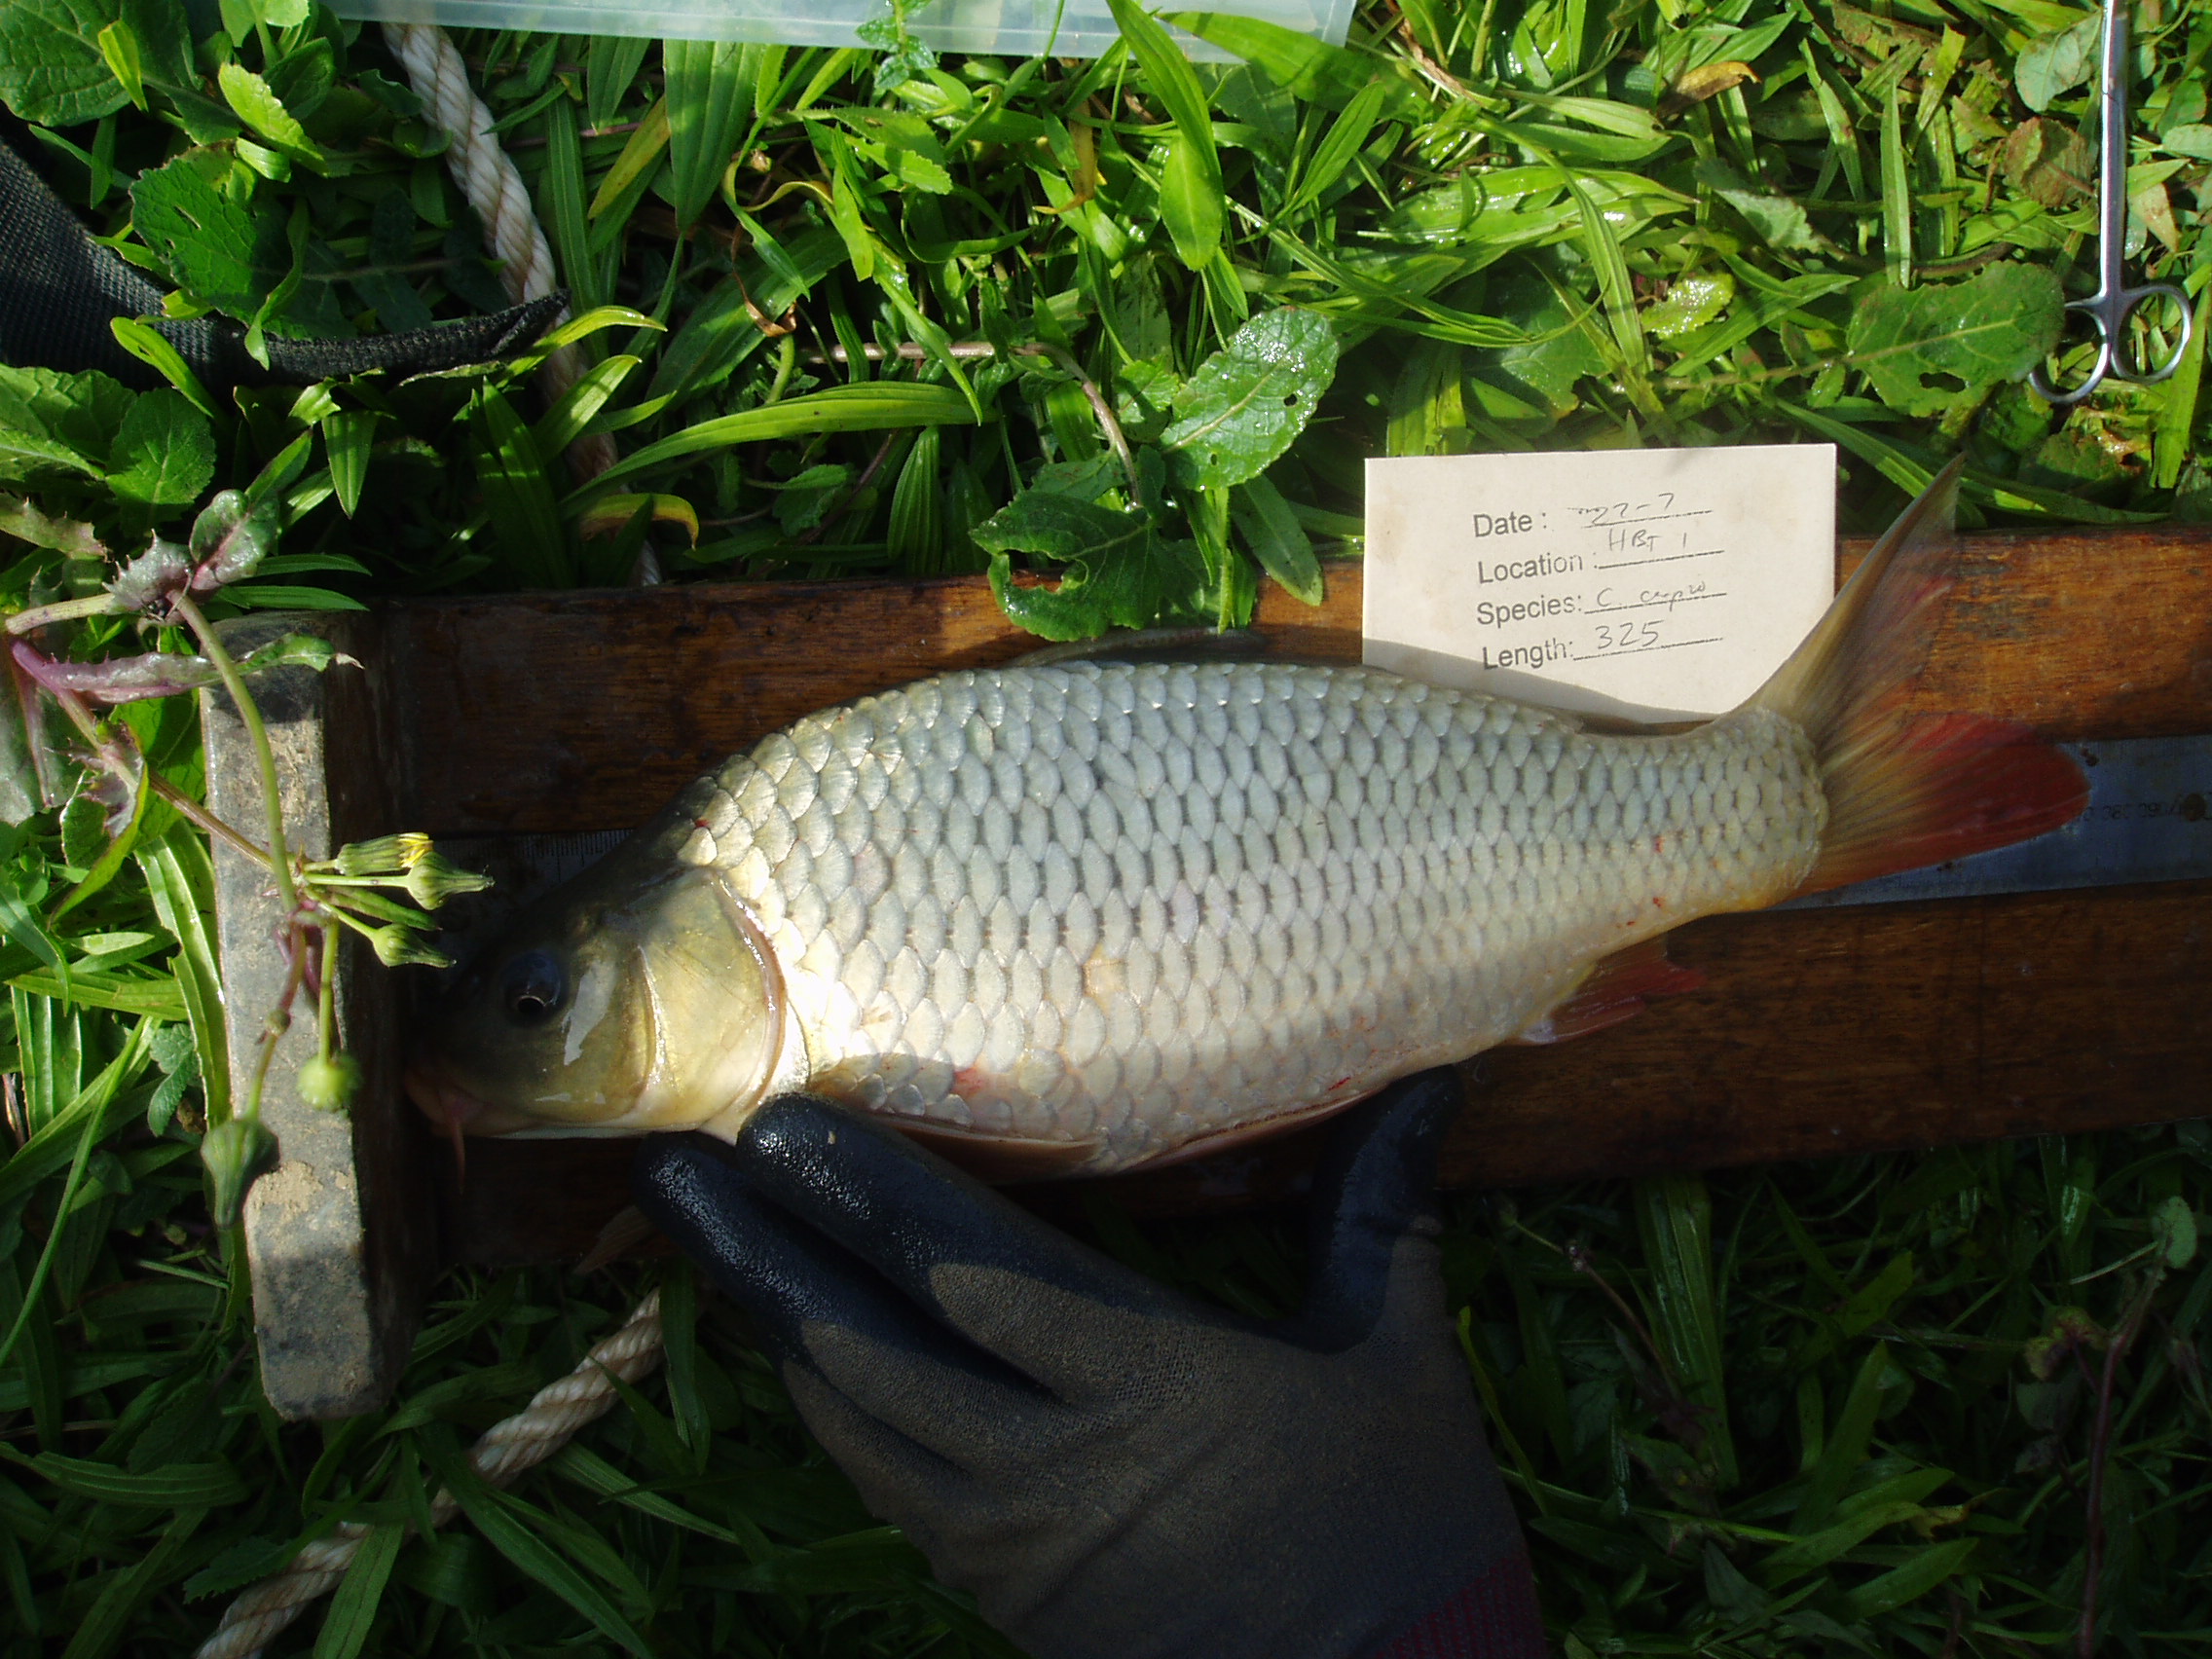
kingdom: Animalia
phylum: Chordata
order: Cypriniformes
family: Cyprinidae
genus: Cyprinus
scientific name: Cyprinus carpio
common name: Common carp
